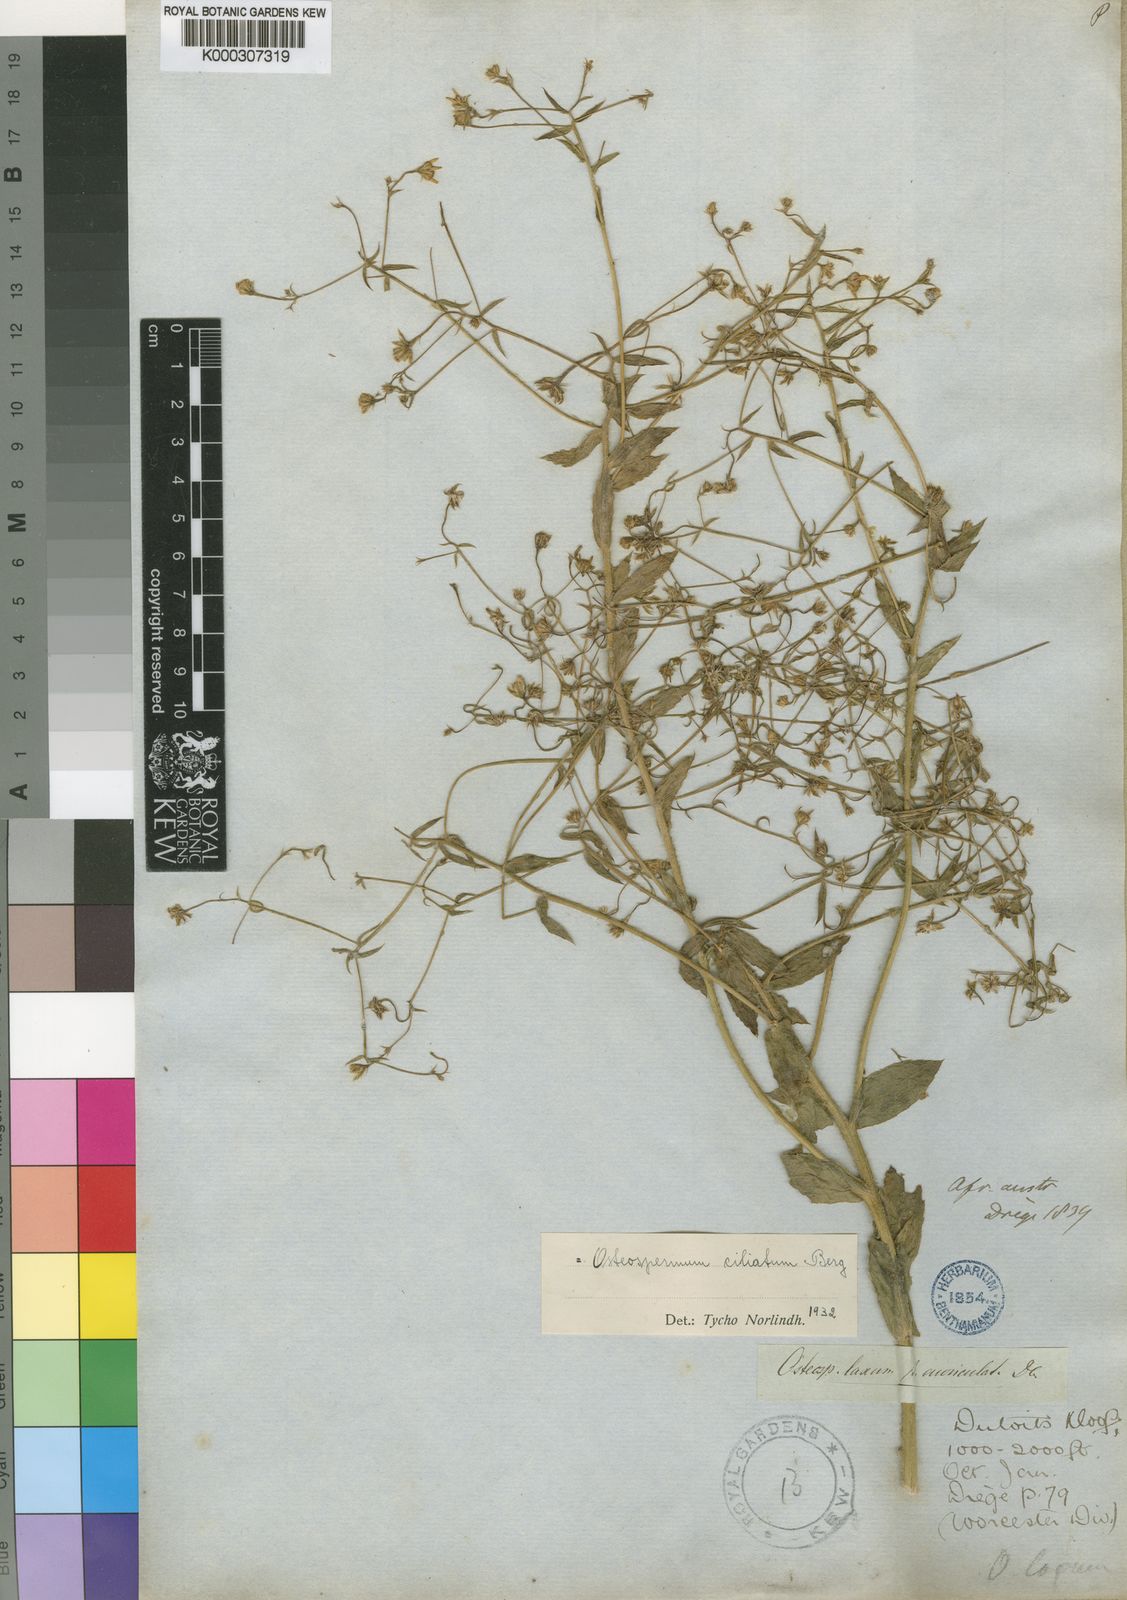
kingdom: Plantae
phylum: Tracheophyta
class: Magnoliopsida
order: Asterales
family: Asteraceae
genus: Osteospermum
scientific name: Osteospermum ciliatum
